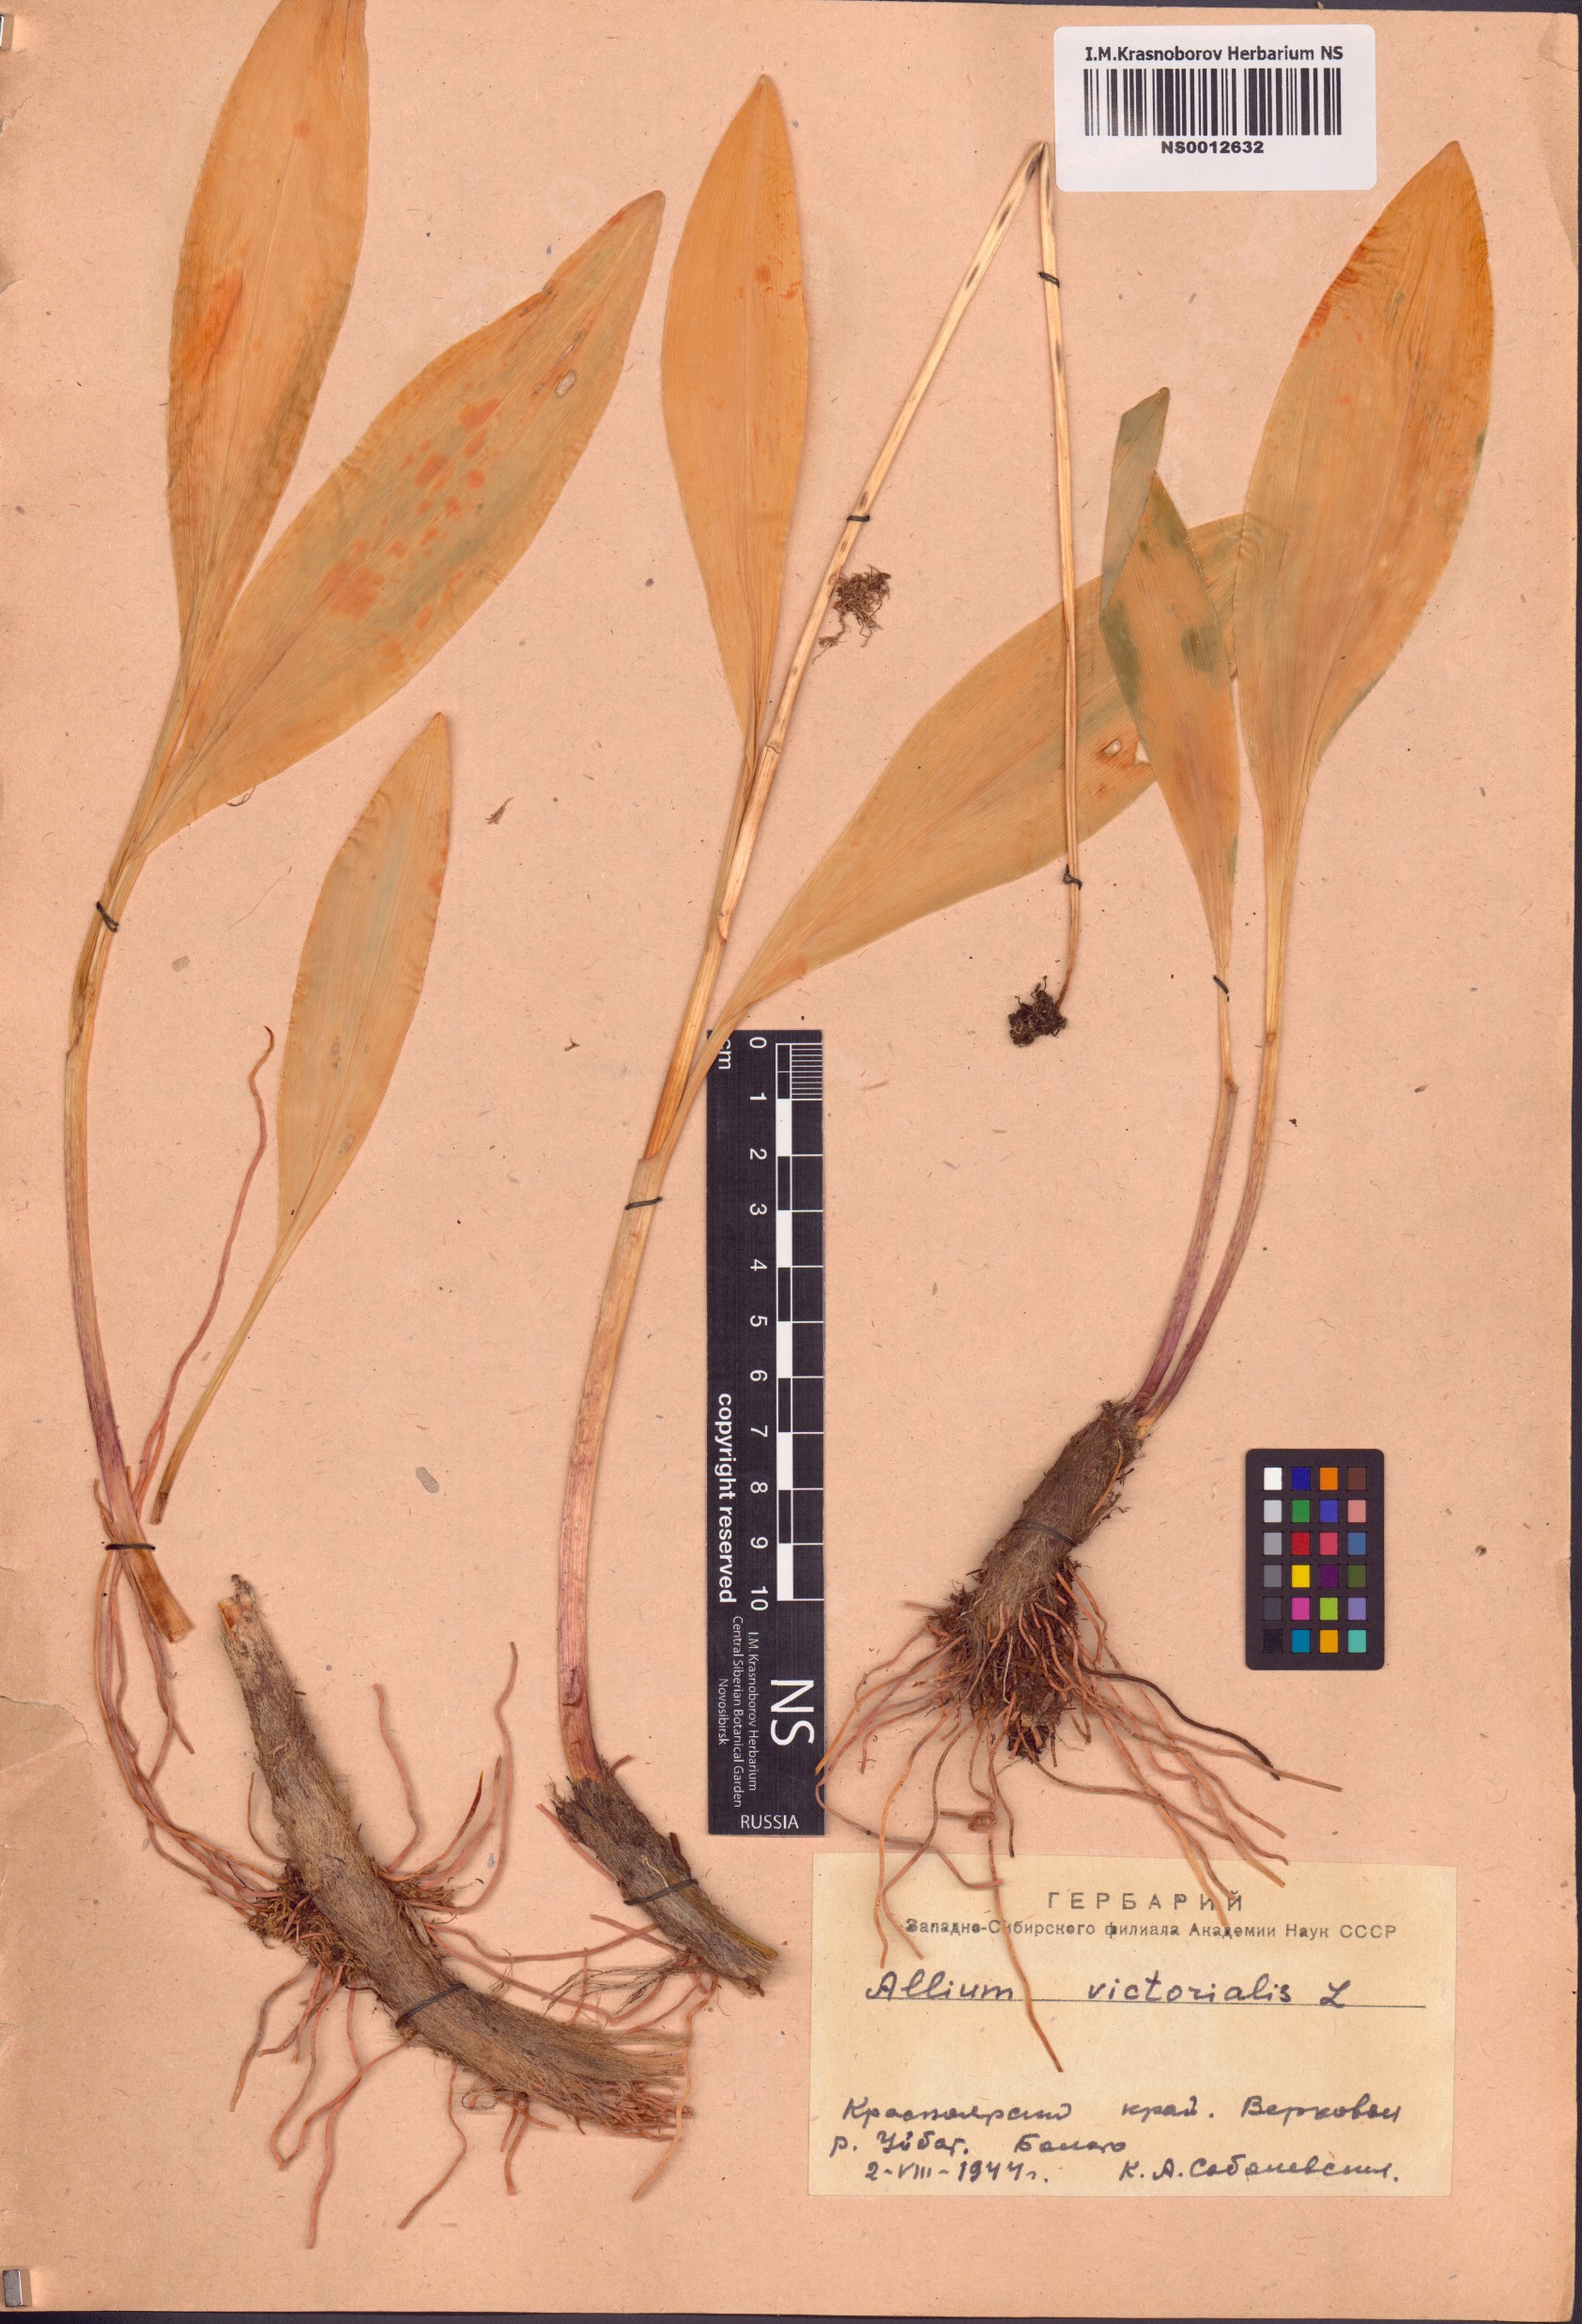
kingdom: Plantae
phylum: Tracheophyta
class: Liliopsida
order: Asparagales
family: Amaryllidaceae
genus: Allium
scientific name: Allium microdictyon
